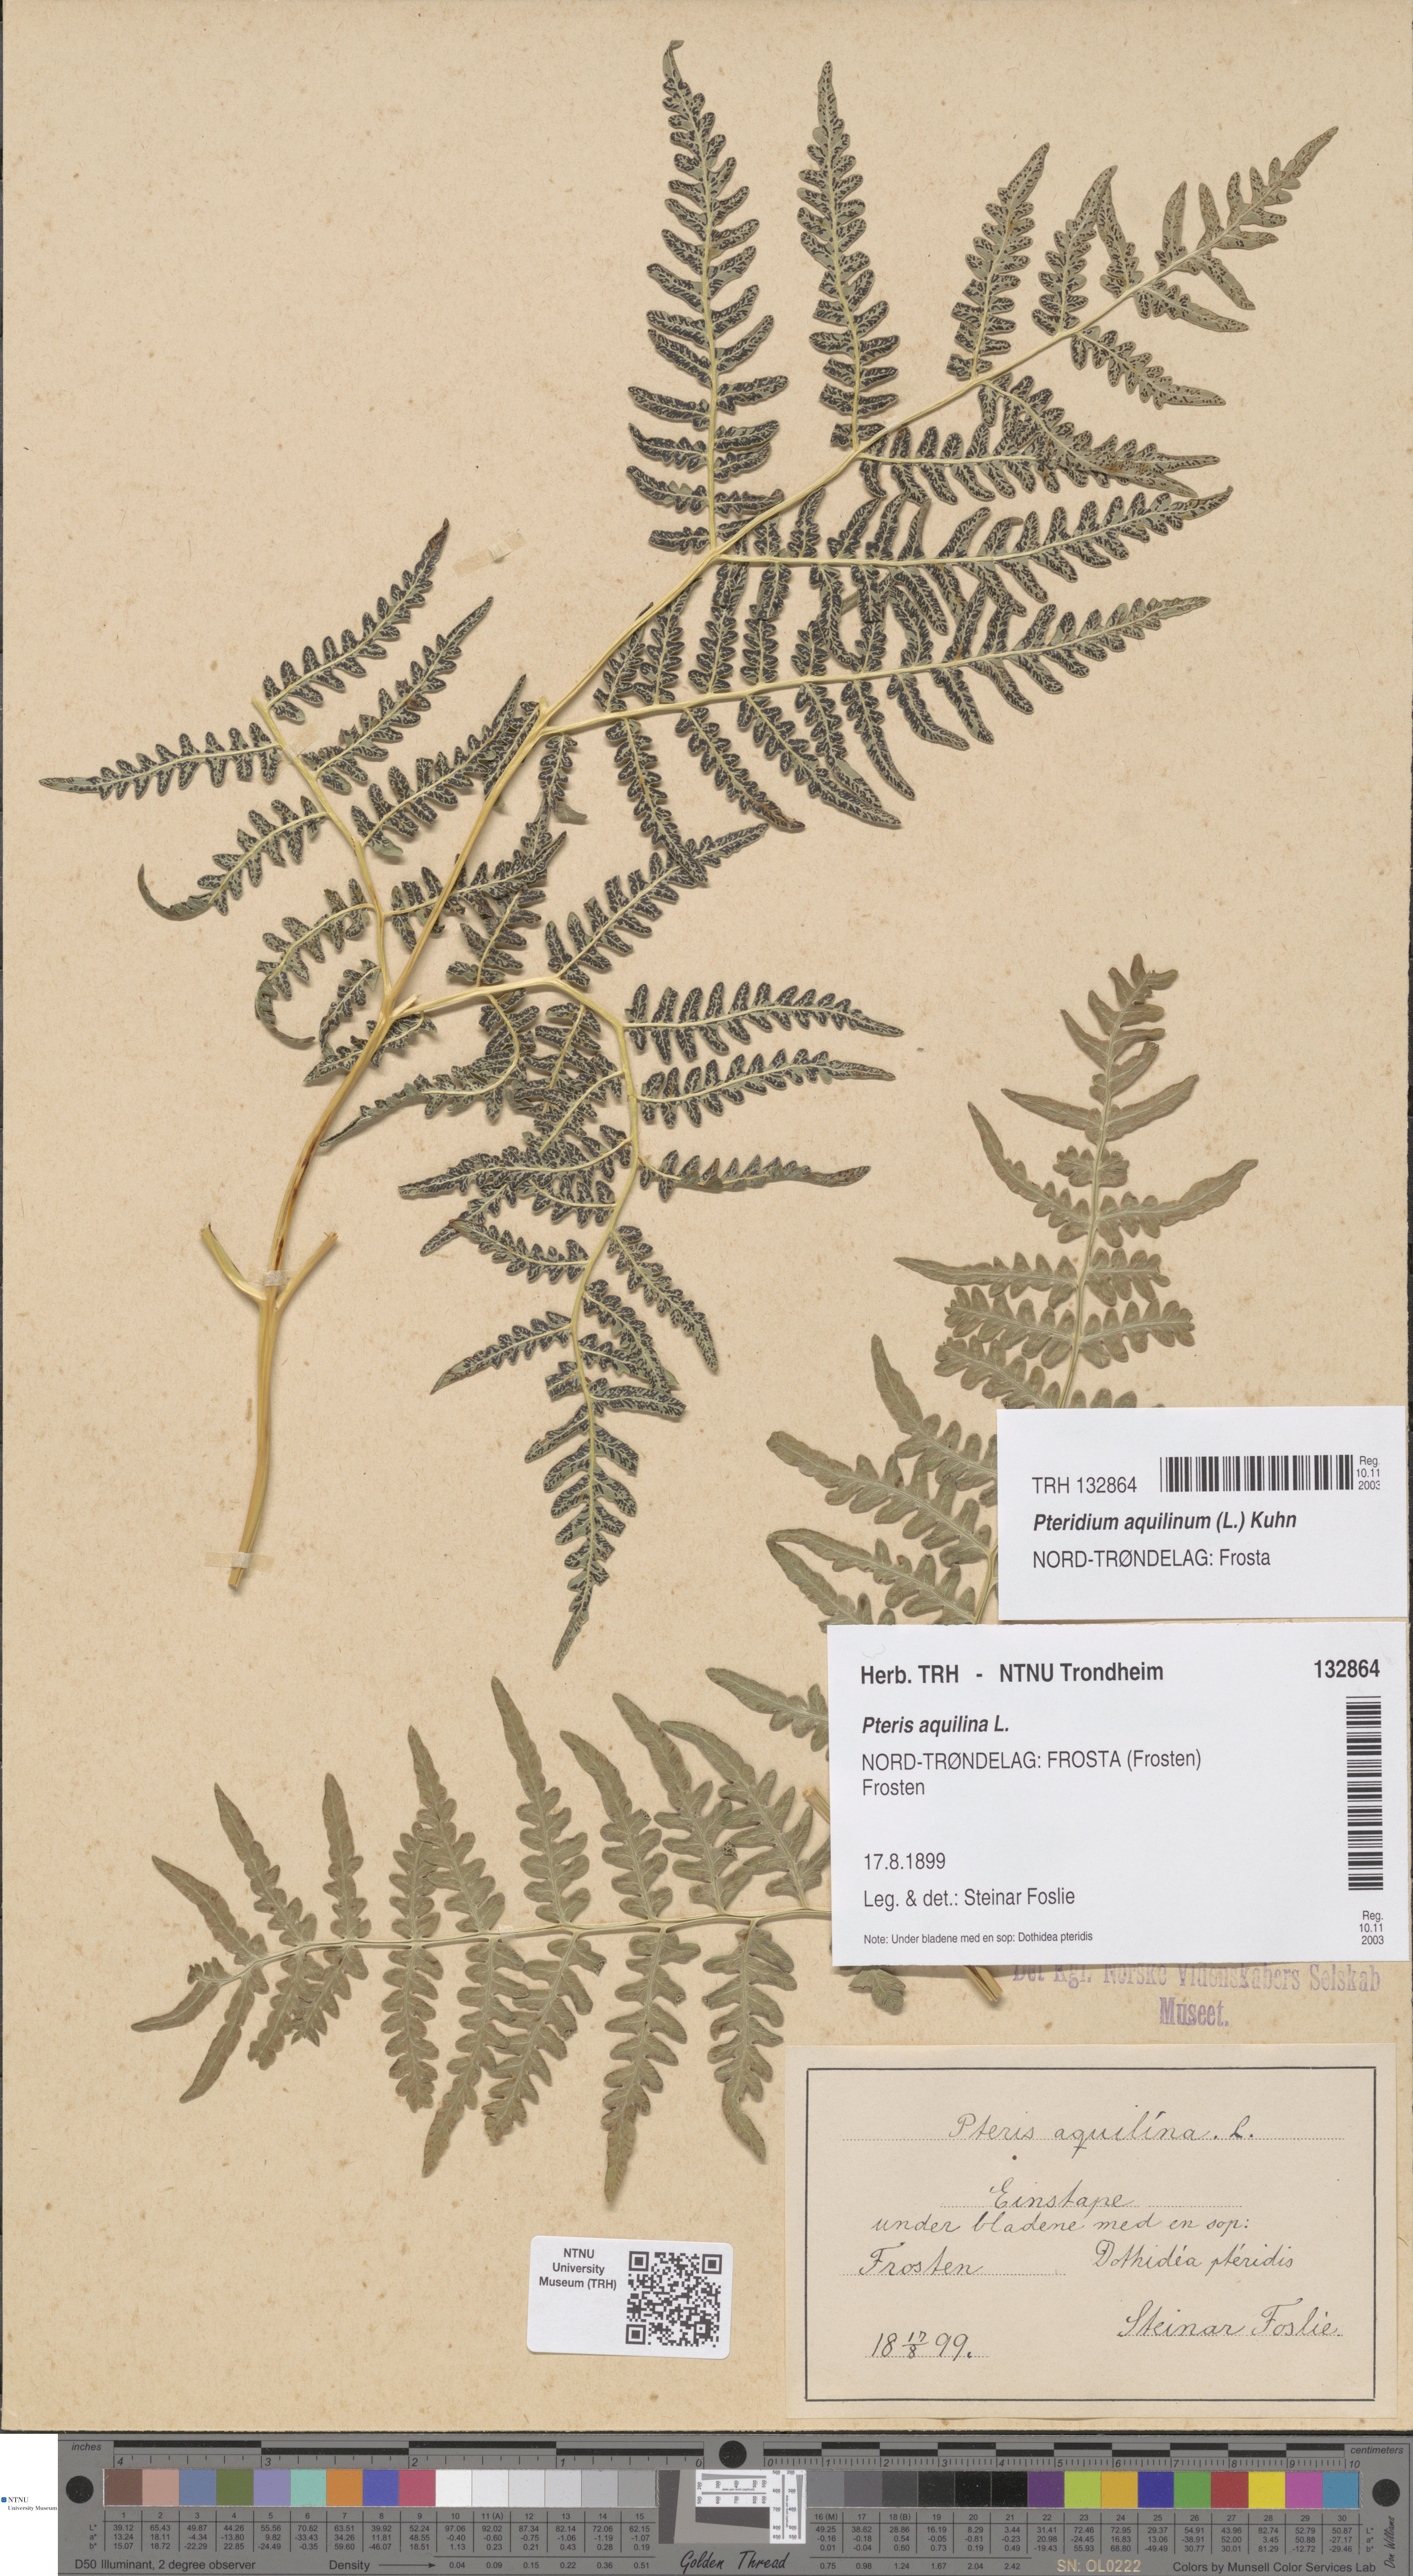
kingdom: Plantae
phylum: Tracheophyta
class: Polypodiopsida
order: Polypodiales
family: Dennstaedtiaceae
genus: Pteridium
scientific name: Pteridium aquilinum
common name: Bracken
